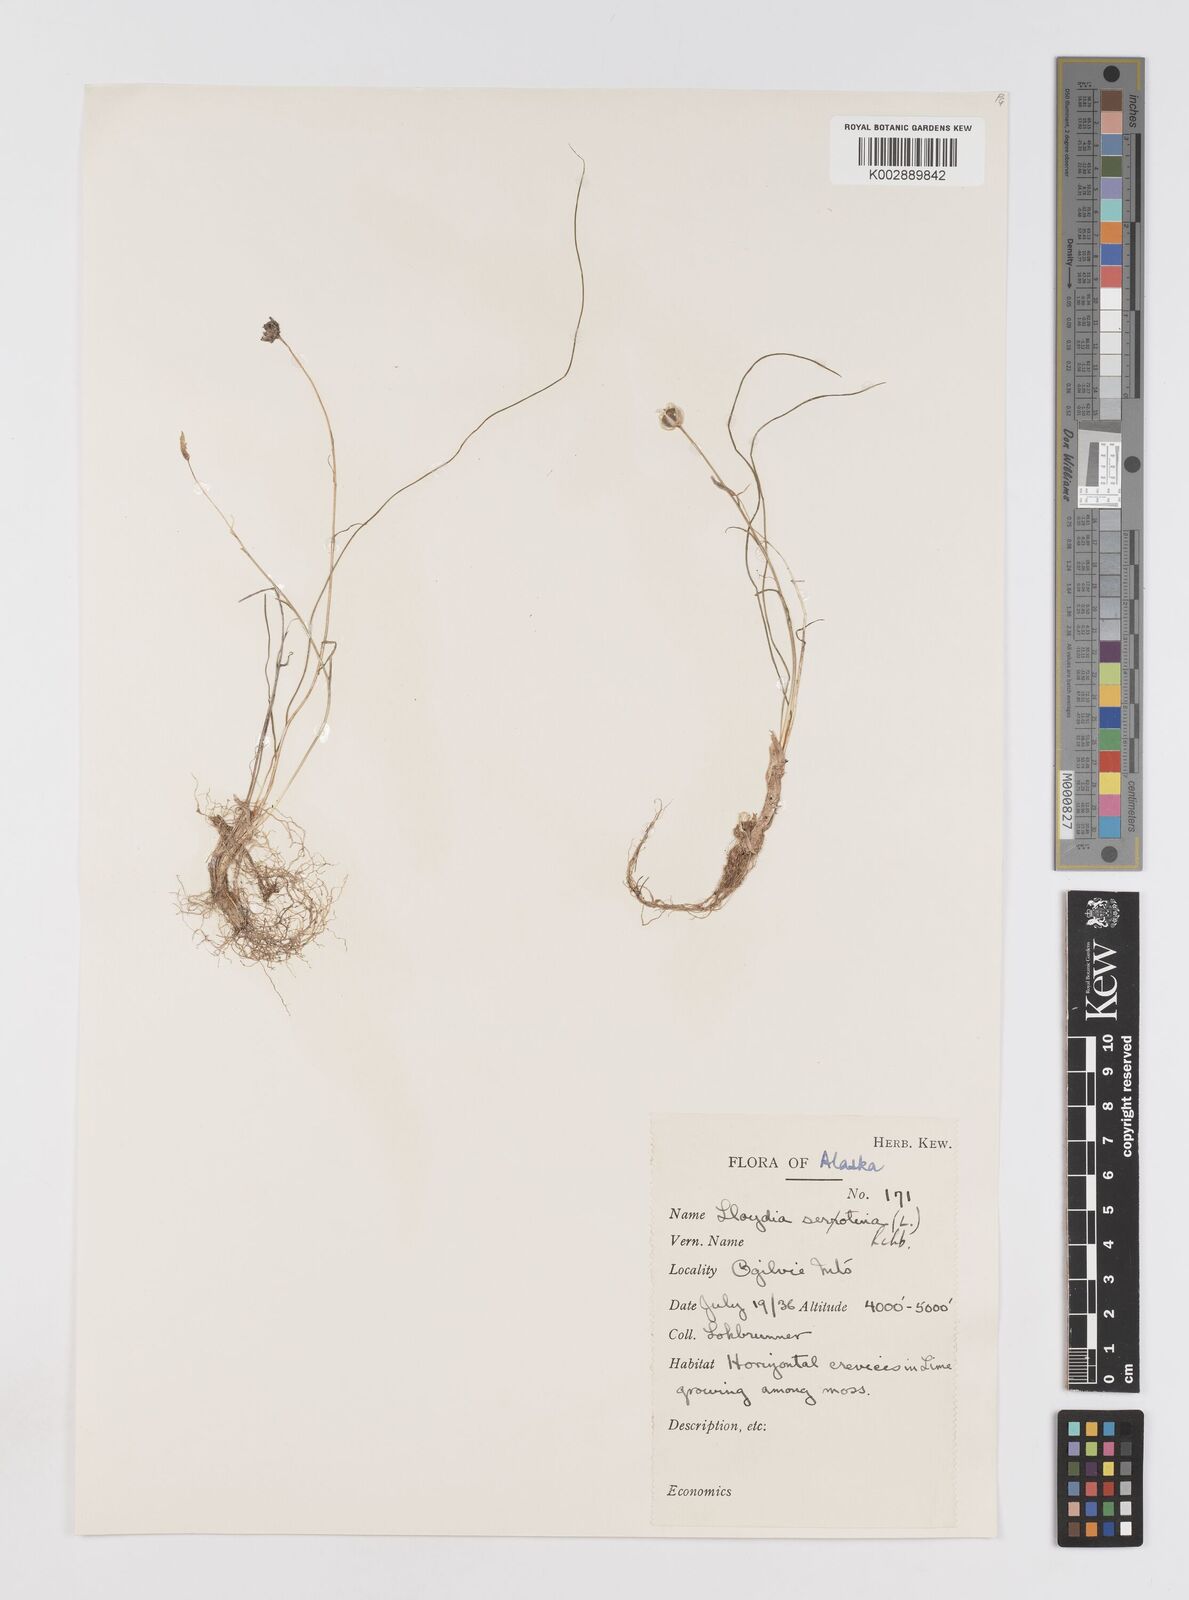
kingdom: Plantae
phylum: Tracheophyta
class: Liliopsida
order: Liliales
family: Liliaceae
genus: Gagea
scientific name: Gagea serotina
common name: Snowdon lily
